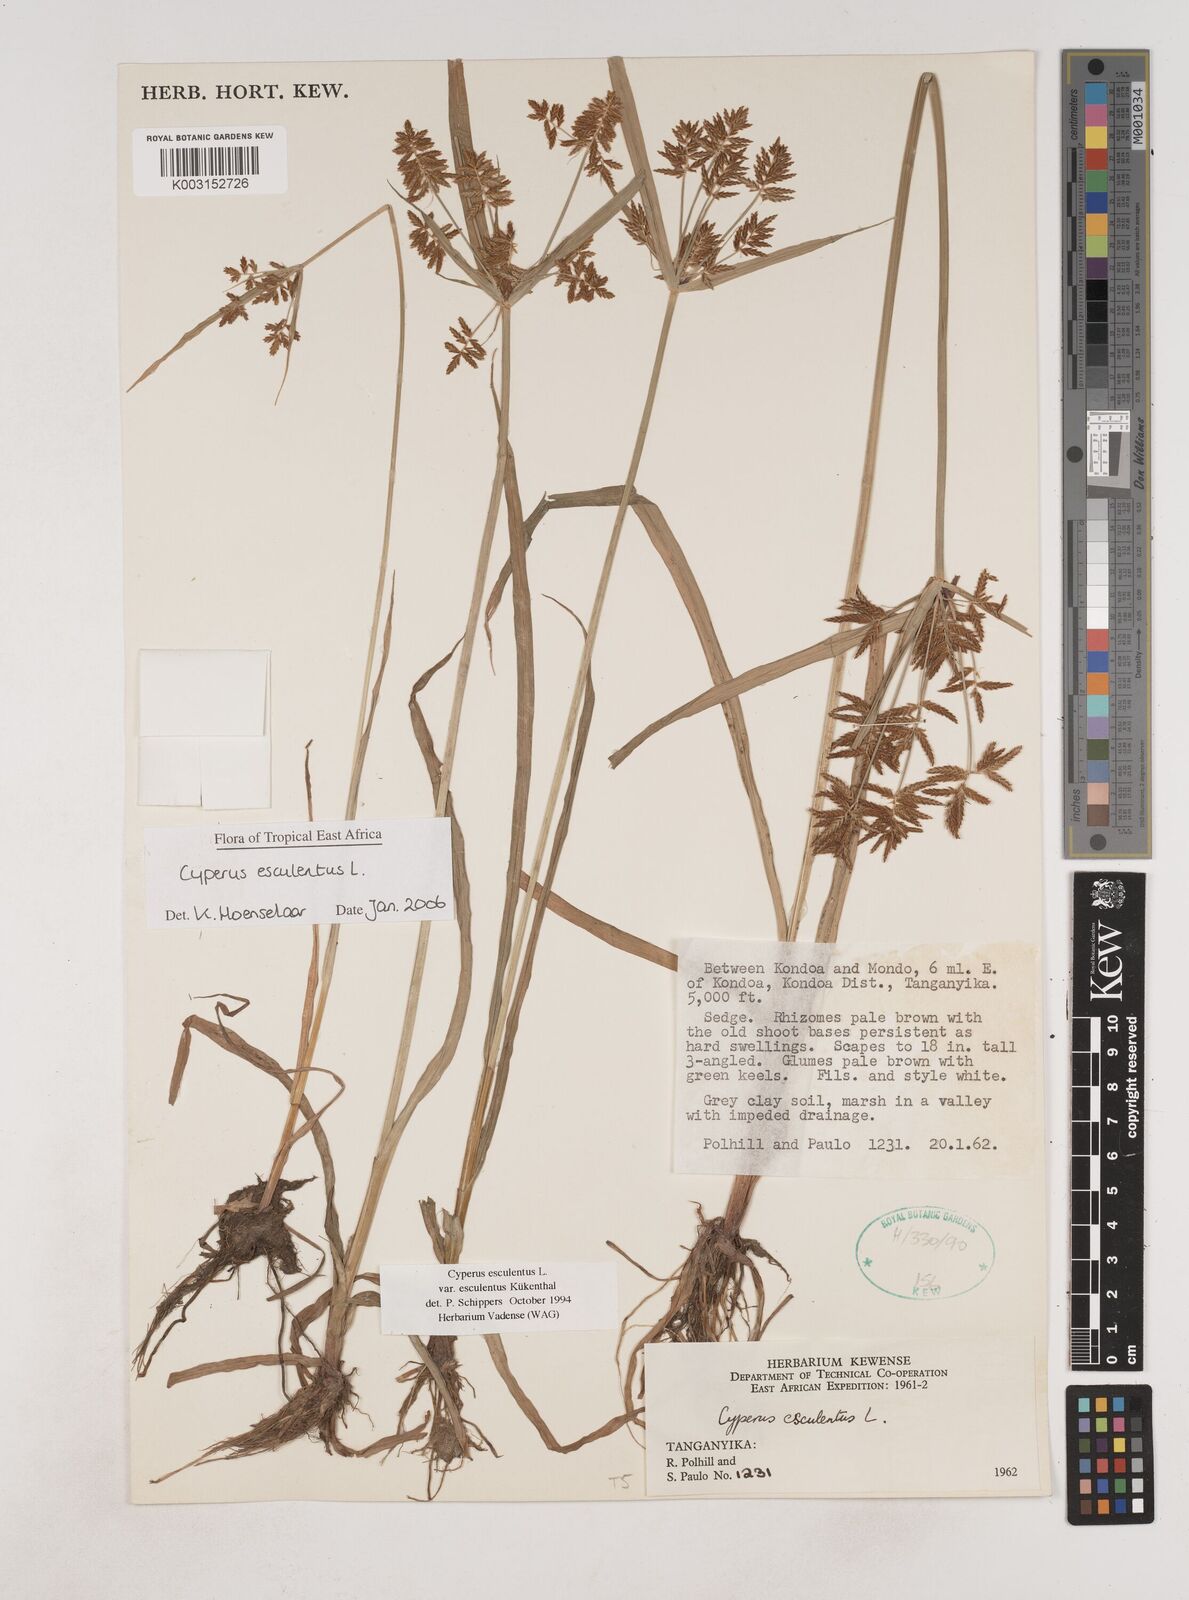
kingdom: Plantae
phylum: Tracheophyta
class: Liliopsida
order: Poales
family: Cyperaceae
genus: Cyperus
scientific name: Cyperus esculentus
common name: Yellow nutsedge
